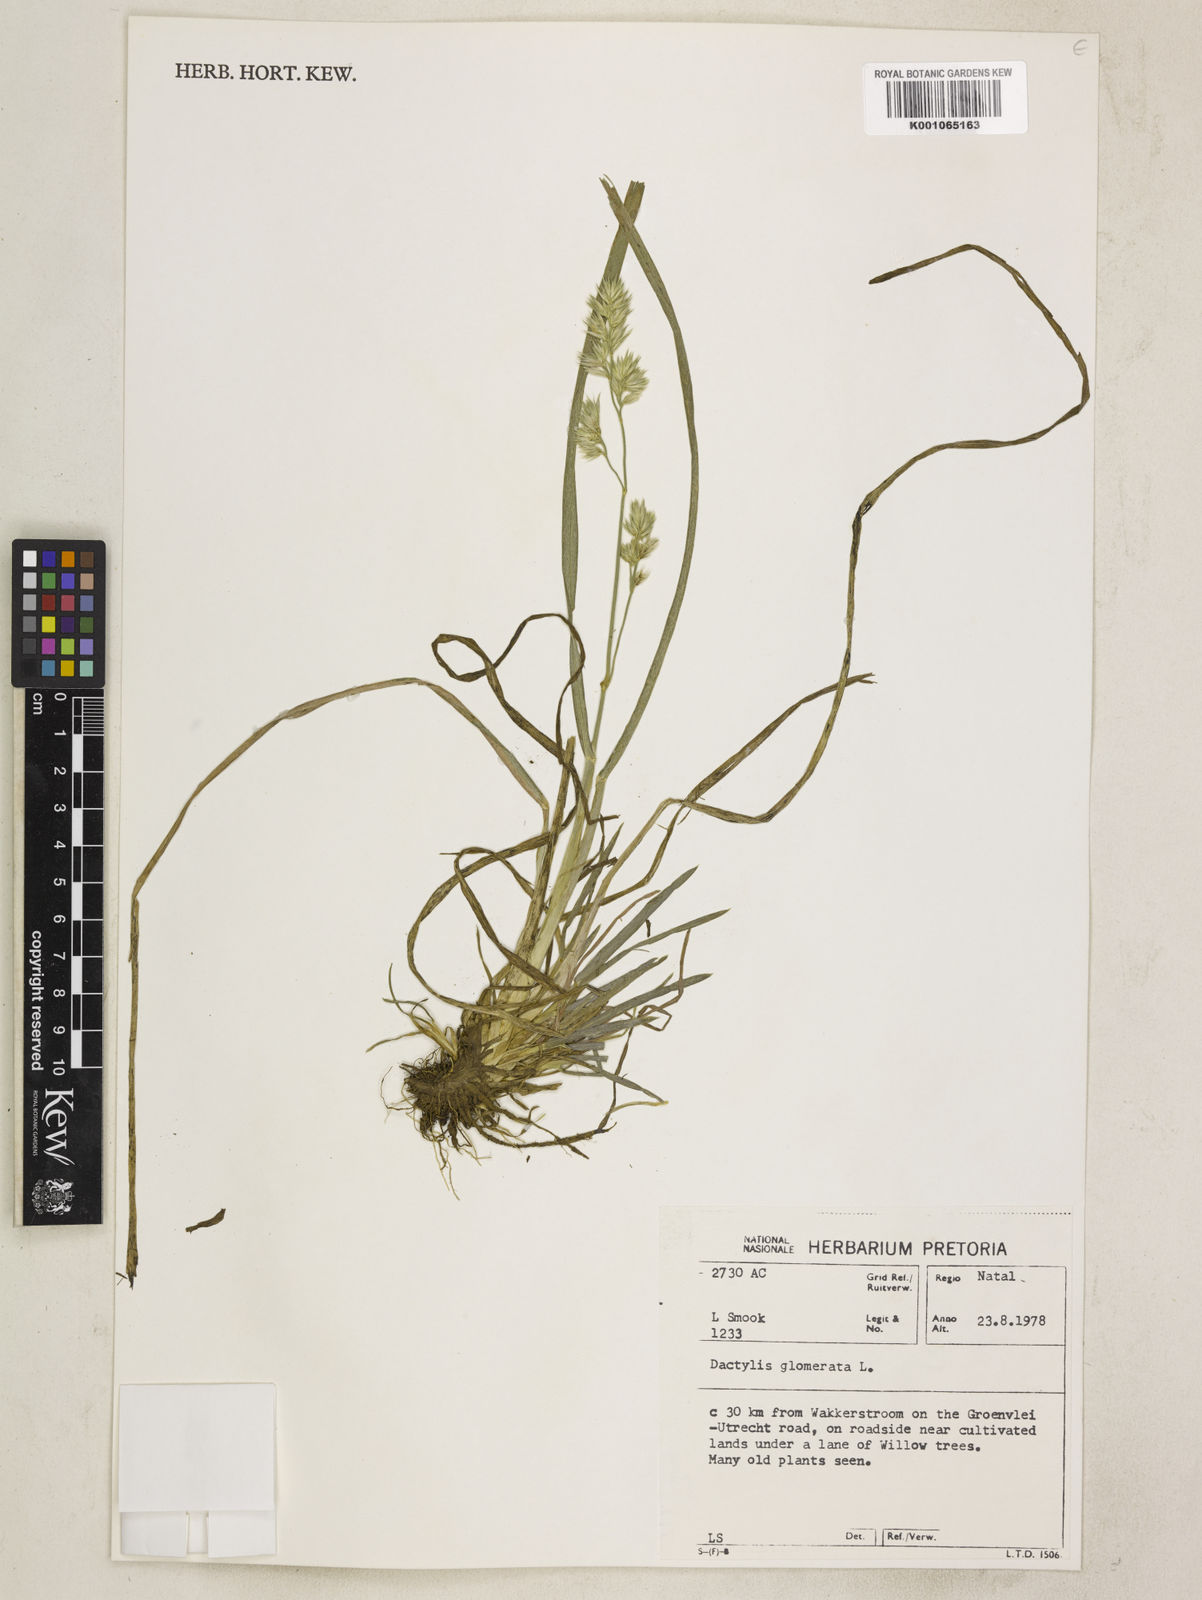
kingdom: Plantae
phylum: Tracheophyta
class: Liliopsida
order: Poales
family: Poaceae
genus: Dactylis
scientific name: Dactylis glomerata
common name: Orchardgrass
